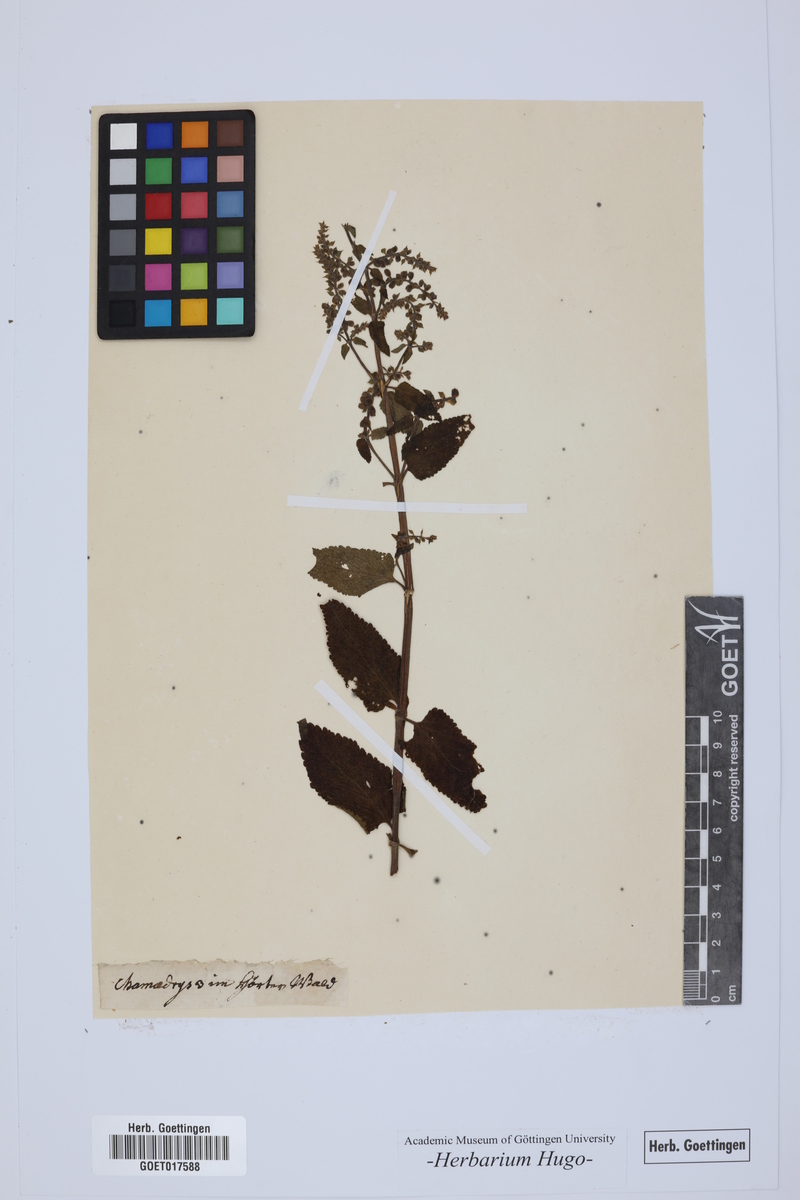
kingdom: Plantae
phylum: Tracheophyta
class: Magnoliopsida
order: Lamiales
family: Lamiaceae
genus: Chamaedrys
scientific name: Chamaedrys
